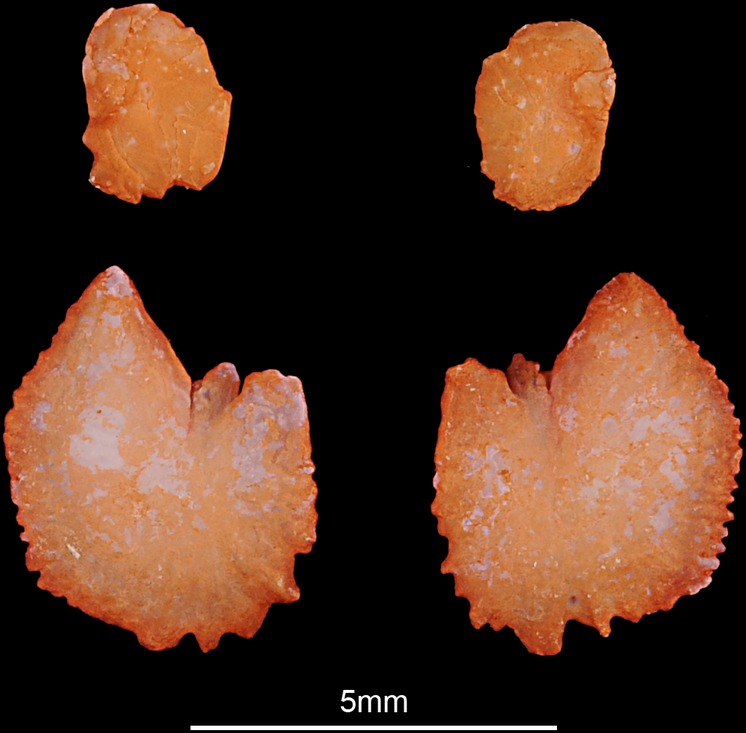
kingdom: Animalia
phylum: Chordata
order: Cypriniformes
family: Cyprinidae
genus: Carassius
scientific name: Carassius carassius
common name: Crucian carp
